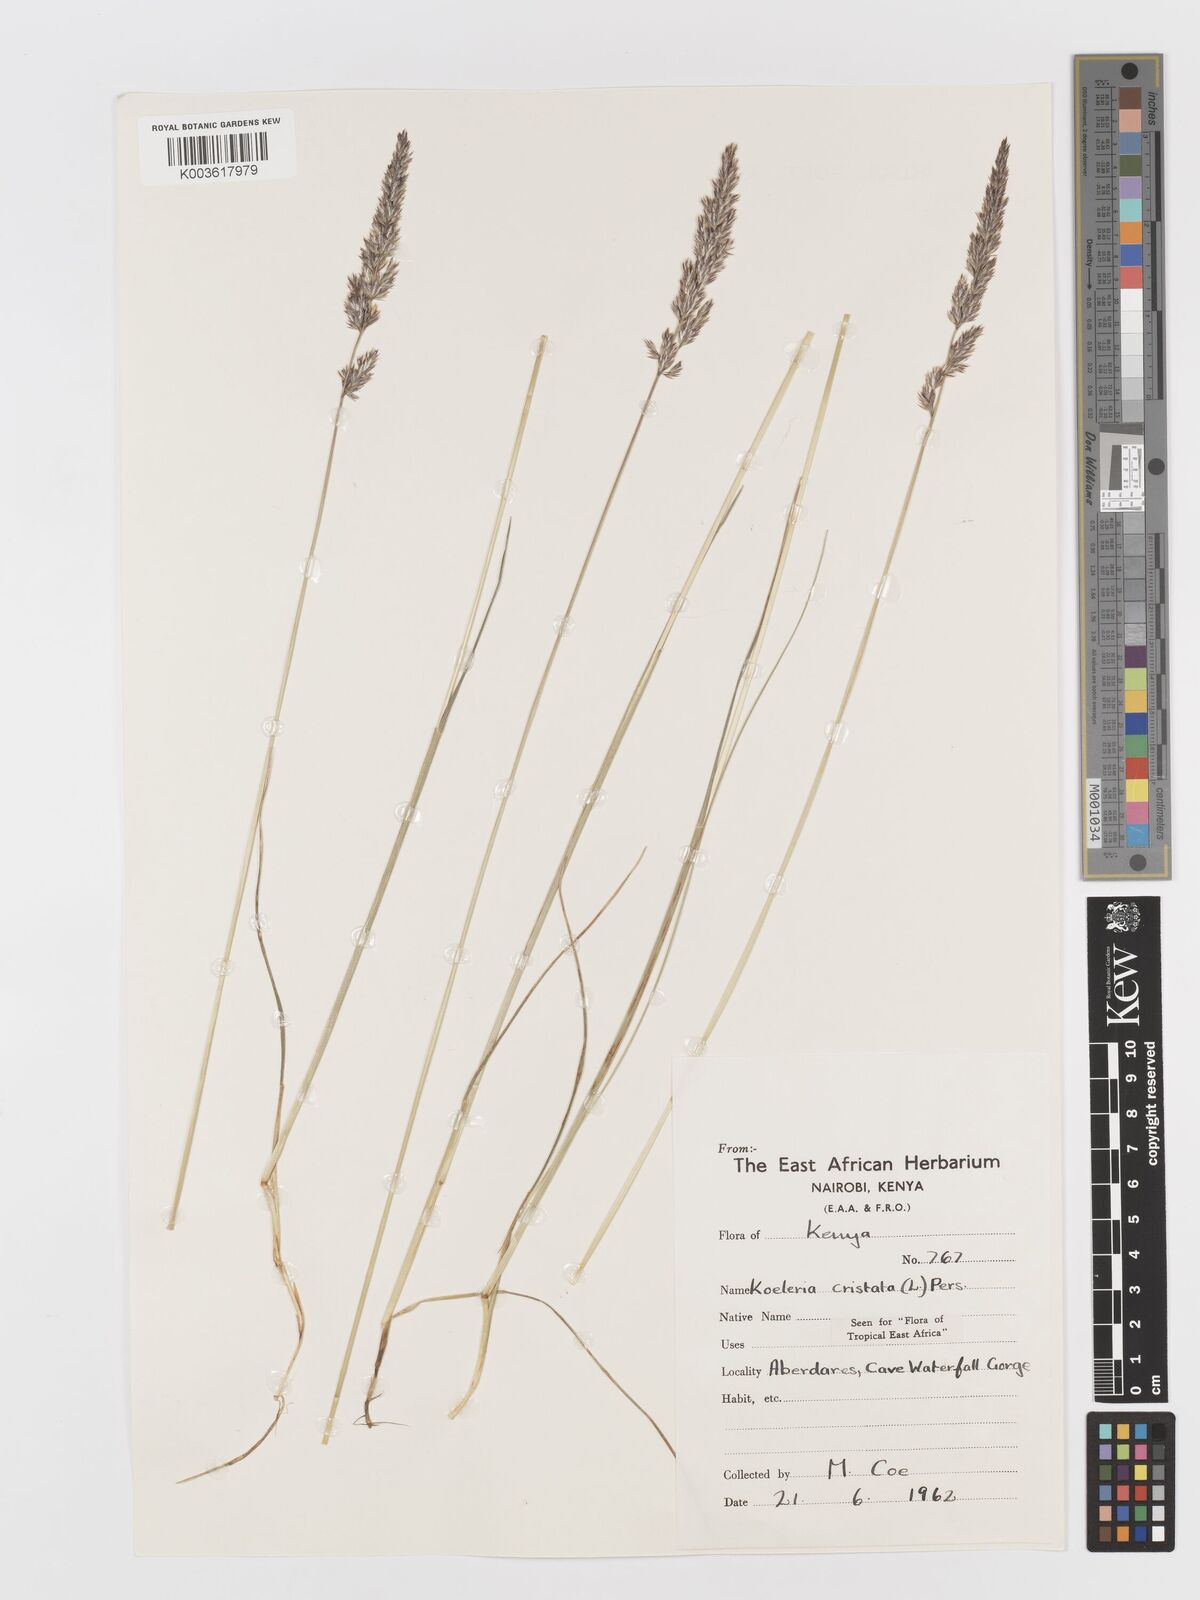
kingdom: Plantae
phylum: Tracheophyta
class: Liliopsida
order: Poales
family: Poaceae
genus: Koeleria
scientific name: Koeleria capensis
